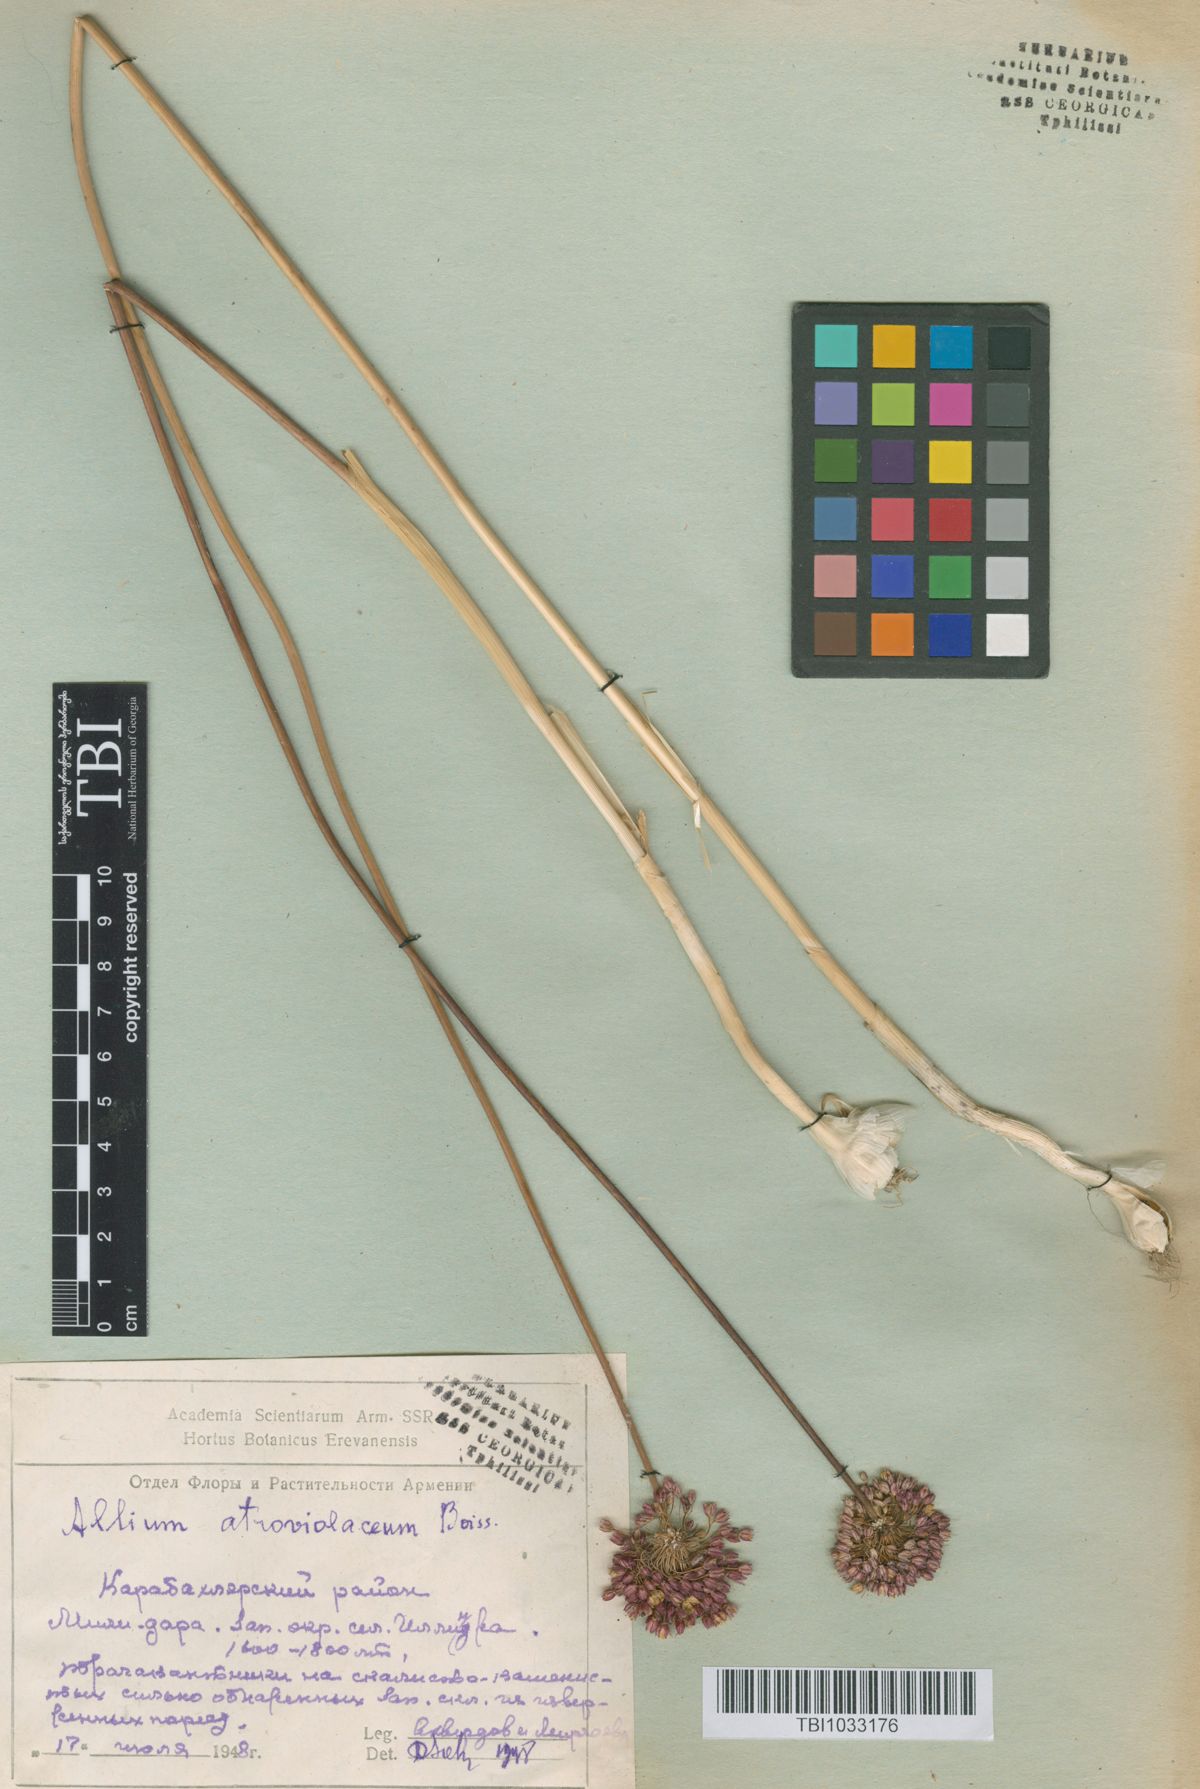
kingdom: Plantae
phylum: Tracheophyta
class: Liliopsida
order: Asparagales
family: Amaryllidaceae
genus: Allium
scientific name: Allium atroviolaceum
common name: Broadleaf wild leek
